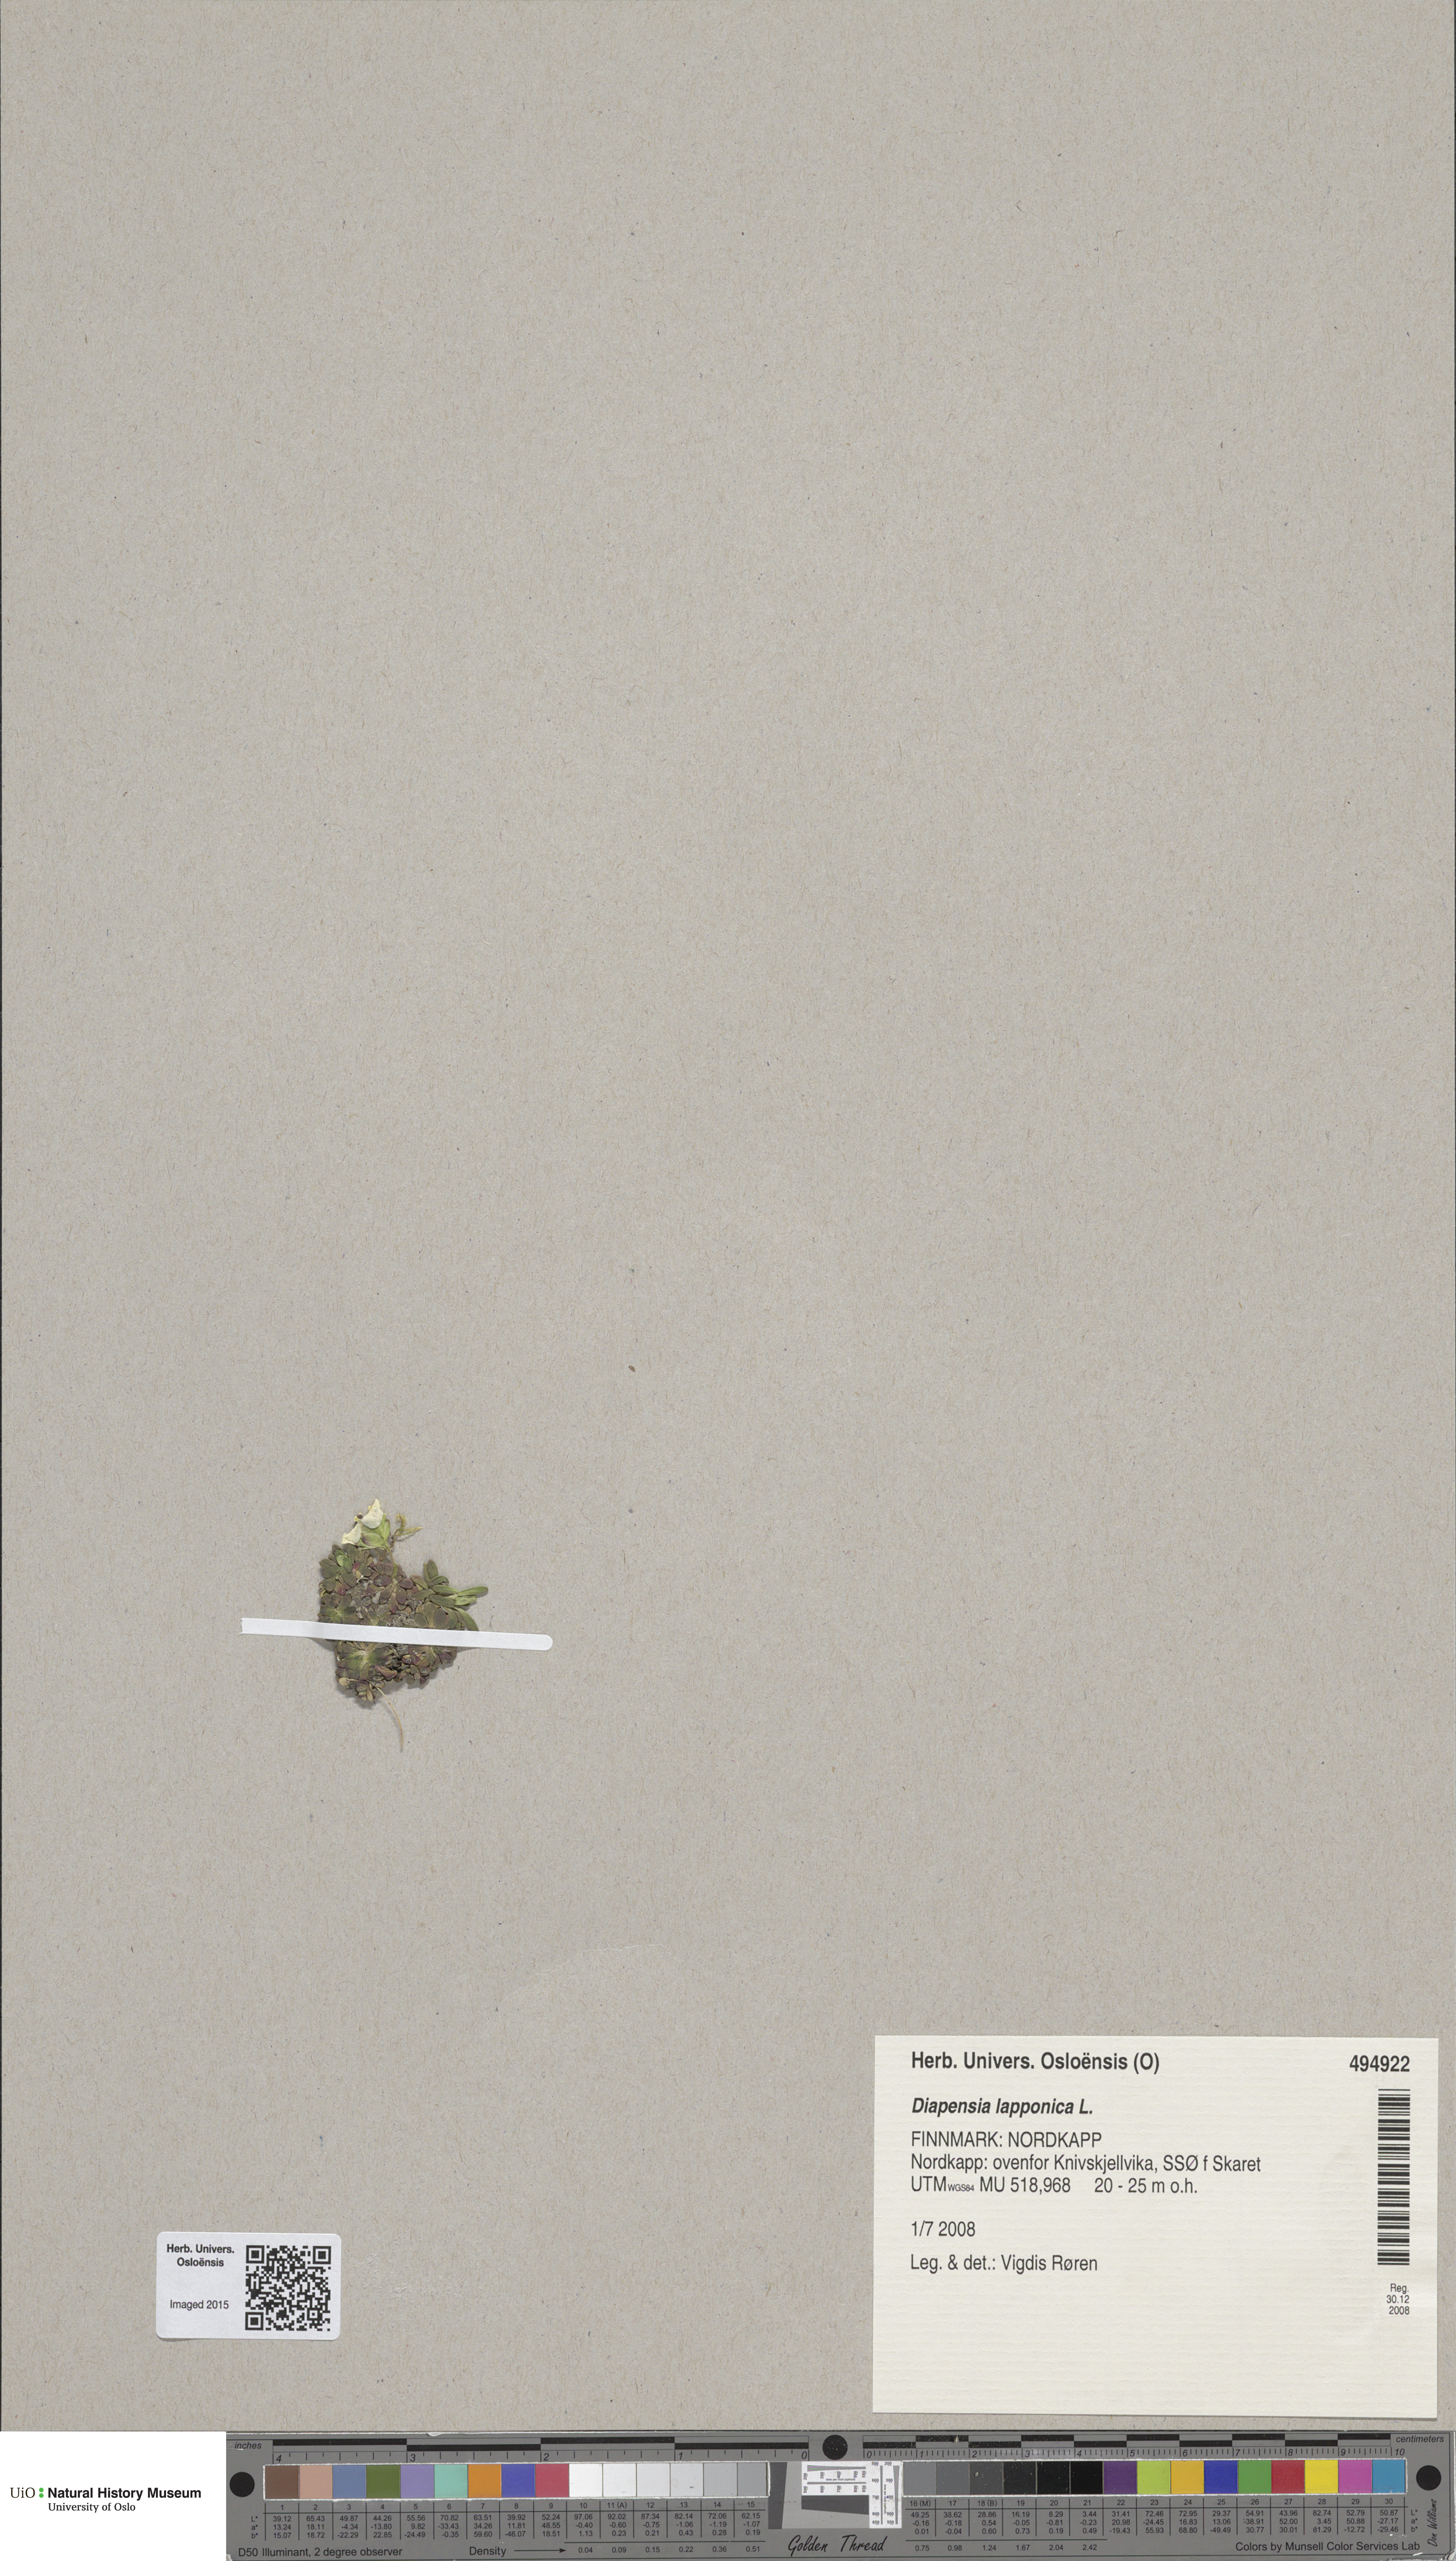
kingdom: Plantae
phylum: Tracheophyta
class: Magnoliopsida
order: Ericales
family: Diapensiaceae
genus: Diapensia
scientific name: Diapensia lapponica
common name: Diapensia
